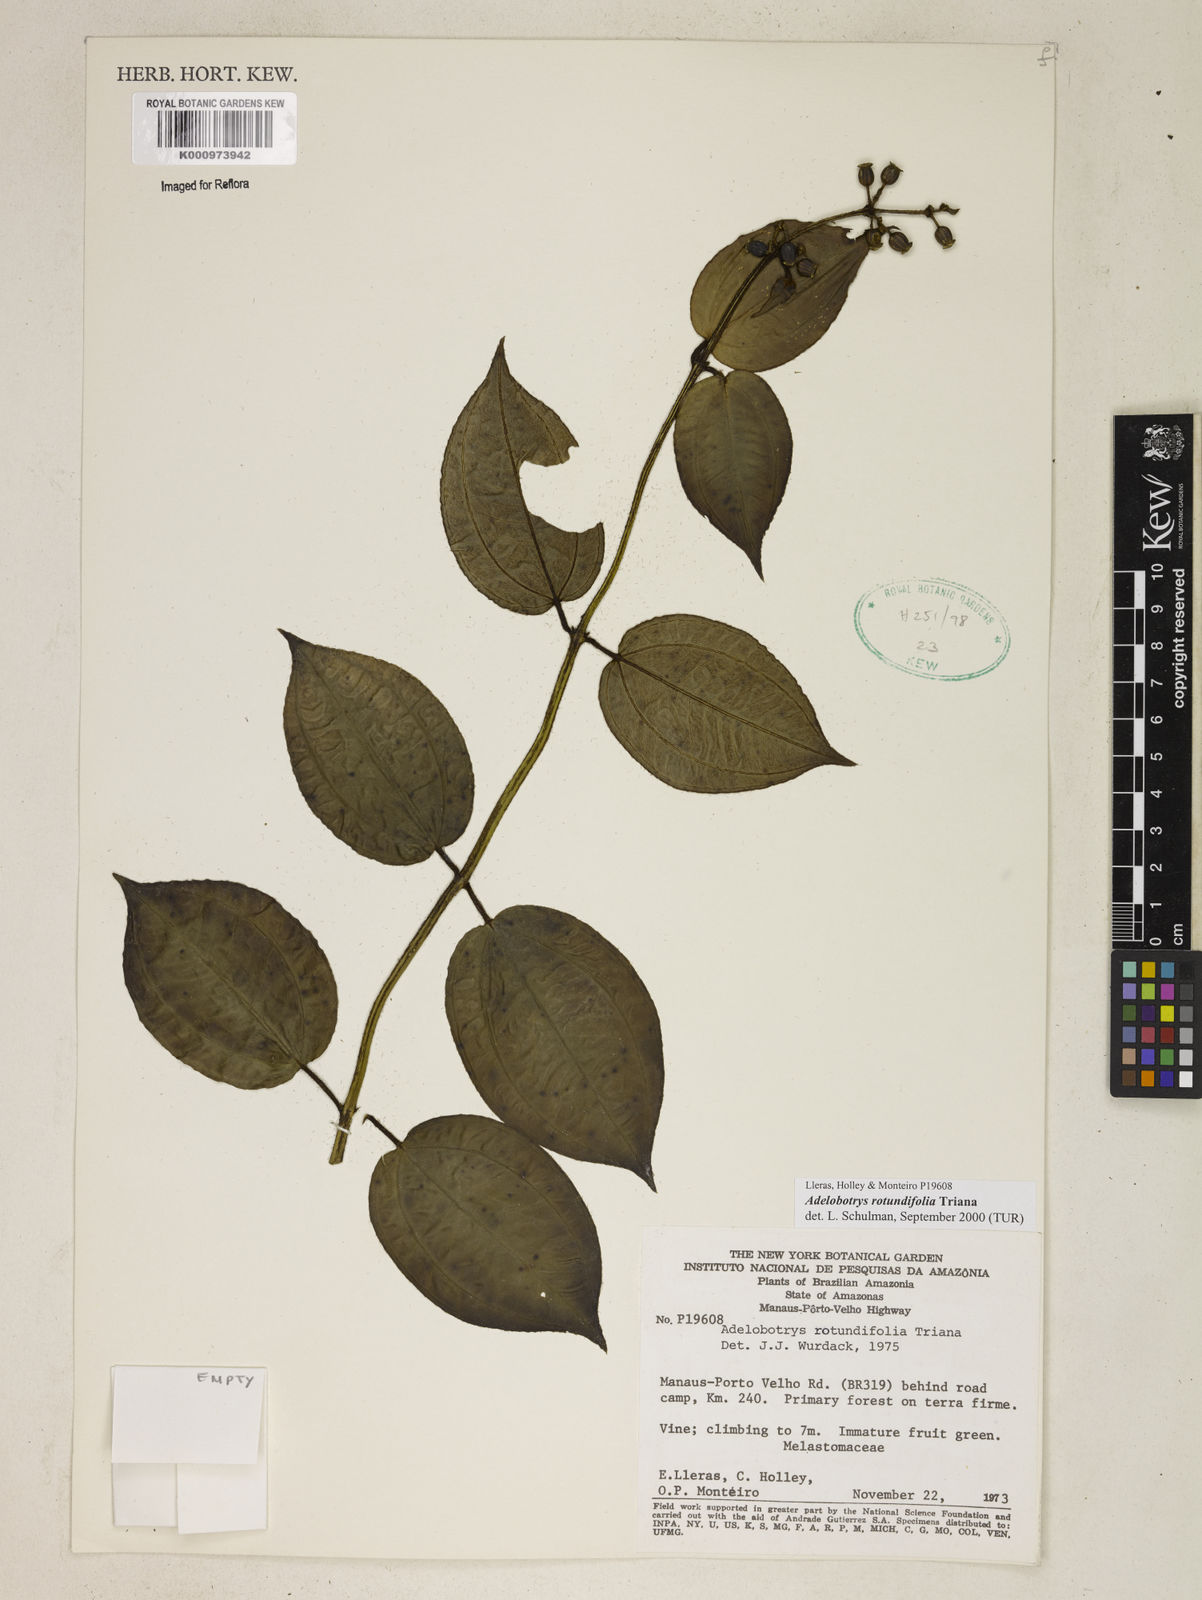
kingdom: Plantae
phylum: Tracheophyta
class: Magnoliopsida
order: Myrtales
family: Melastomataceae
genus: Adelobotrys
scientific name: Adelobotrys rotundifolius
